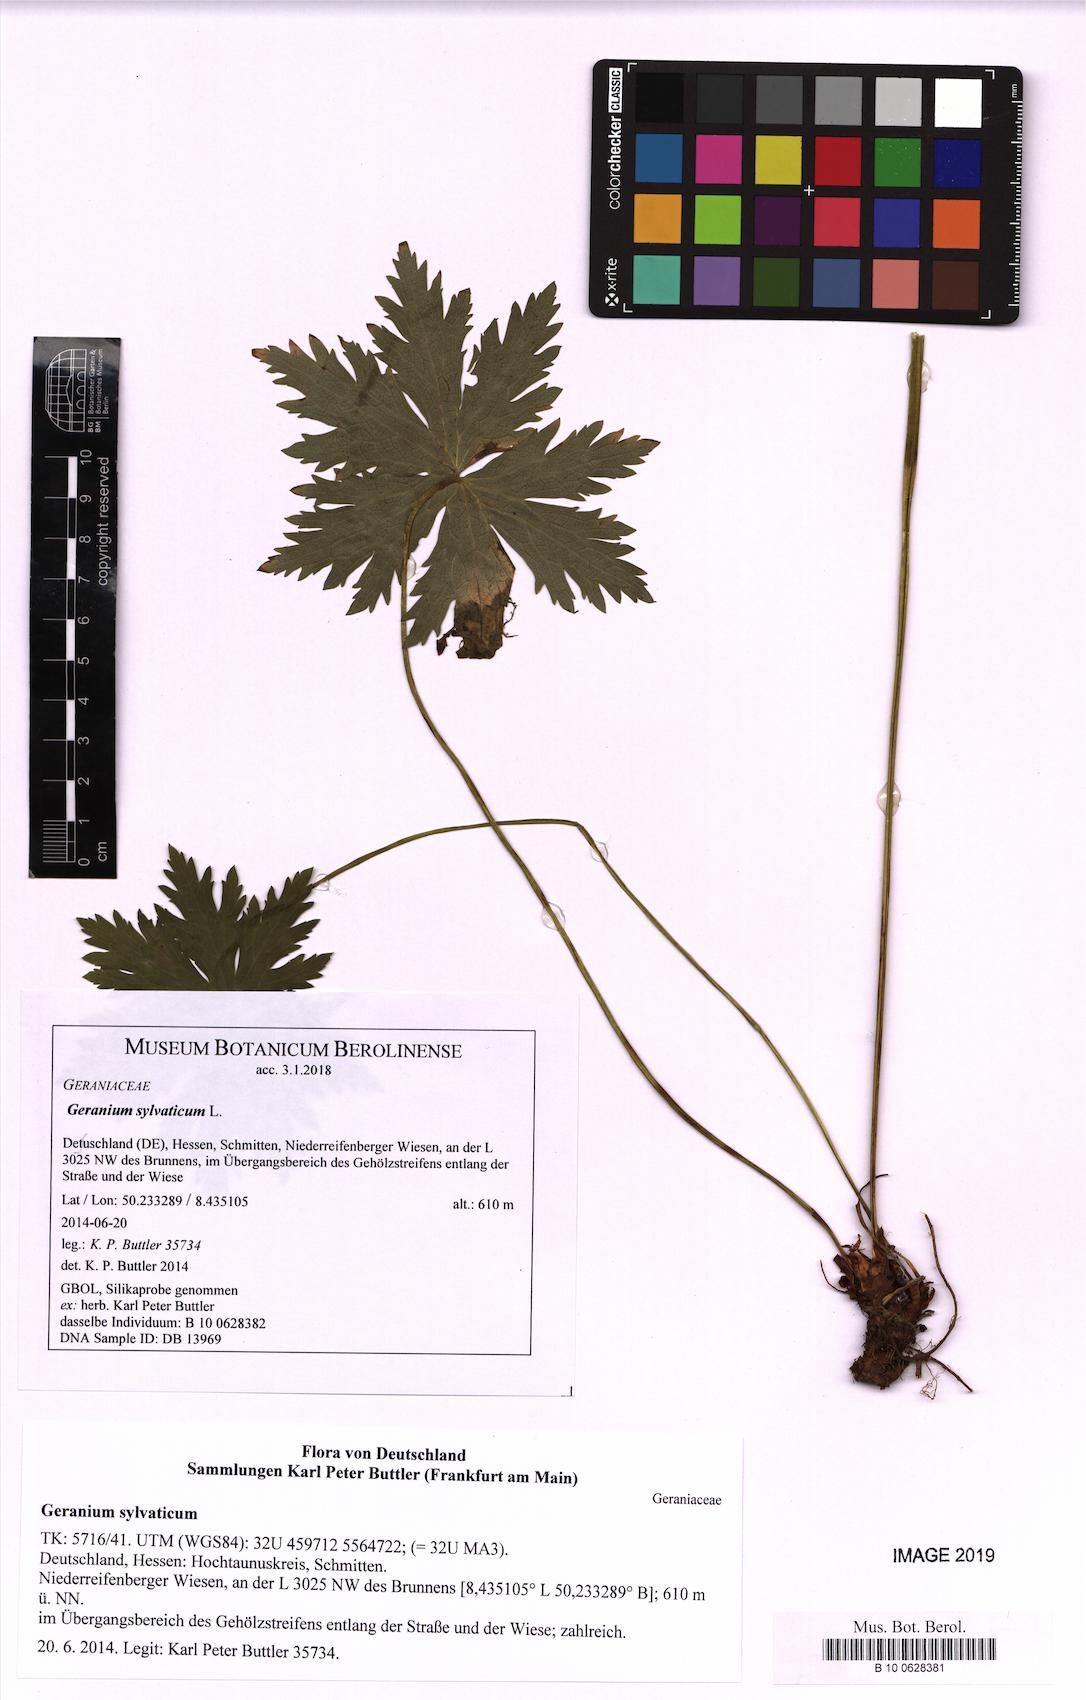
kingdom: Plantae
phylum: Tracheophyta
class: Magnoliopsida
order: Geraniales
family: Geraniaceae
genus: Geranium
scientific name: Geranium sylvaticum
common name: Wood crane's-bill
